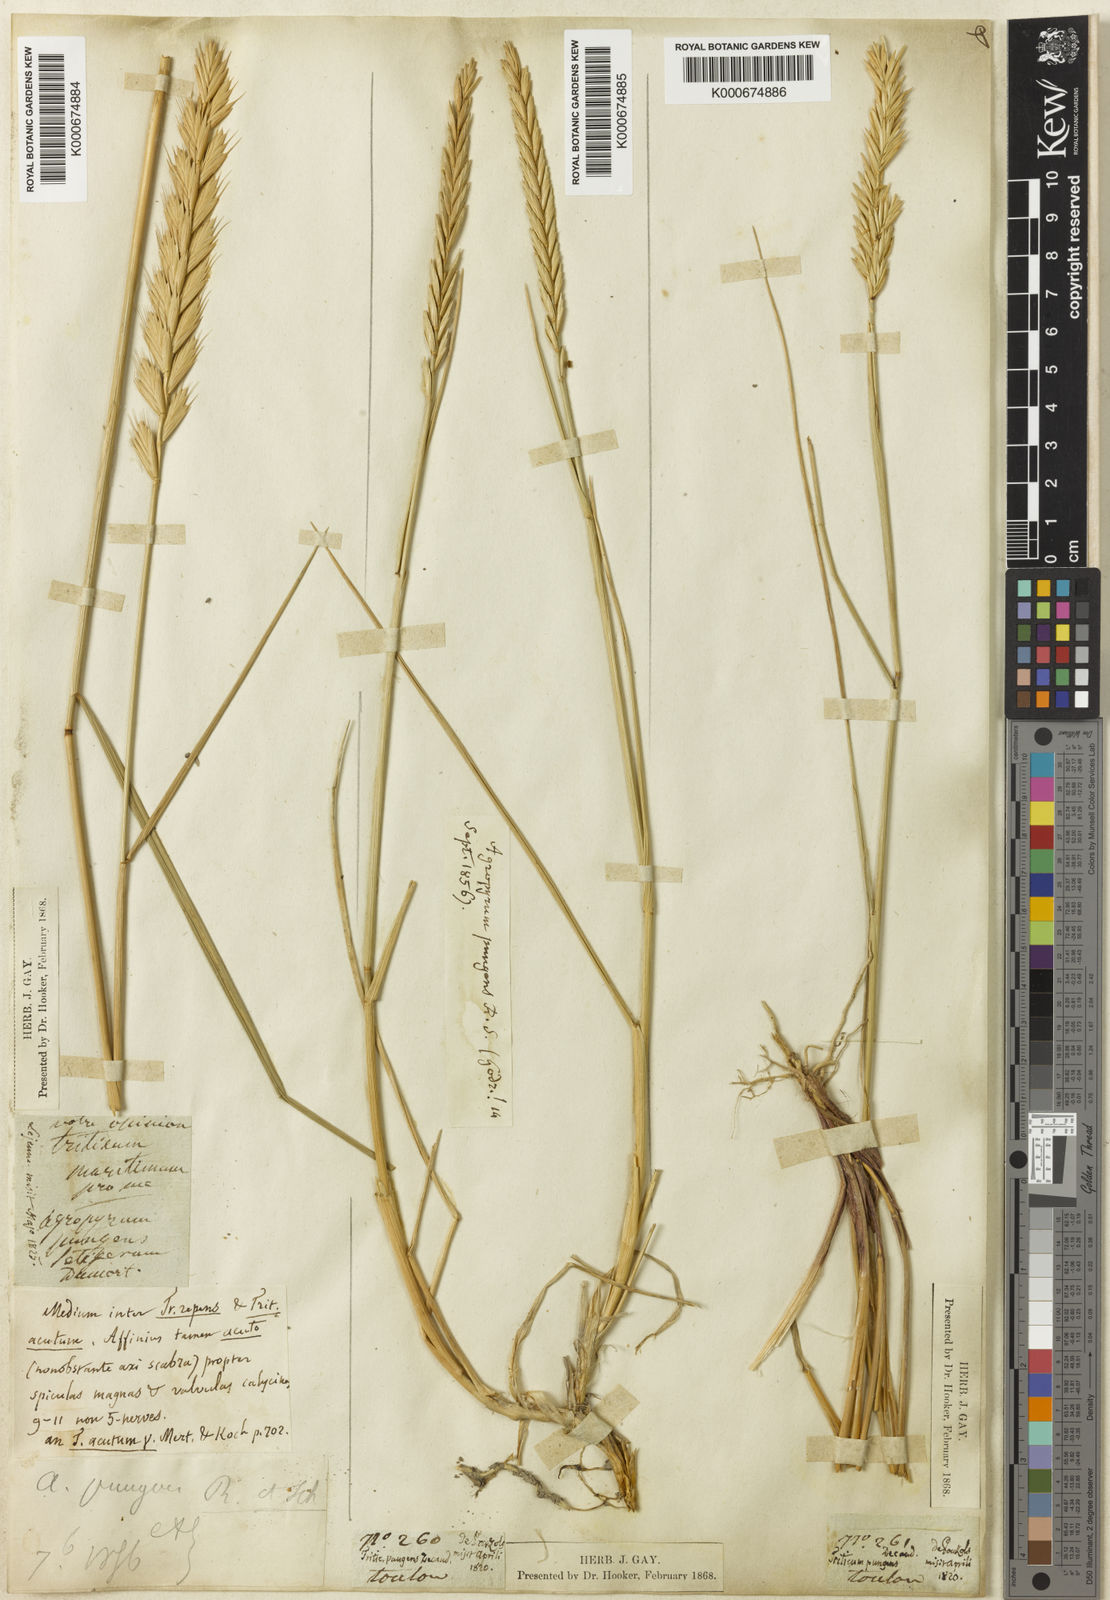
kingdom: Plantae
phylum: Tracheophyta
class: Liliopsida
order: Poales
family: Poaceae
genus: Elymus
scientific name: Elymus
